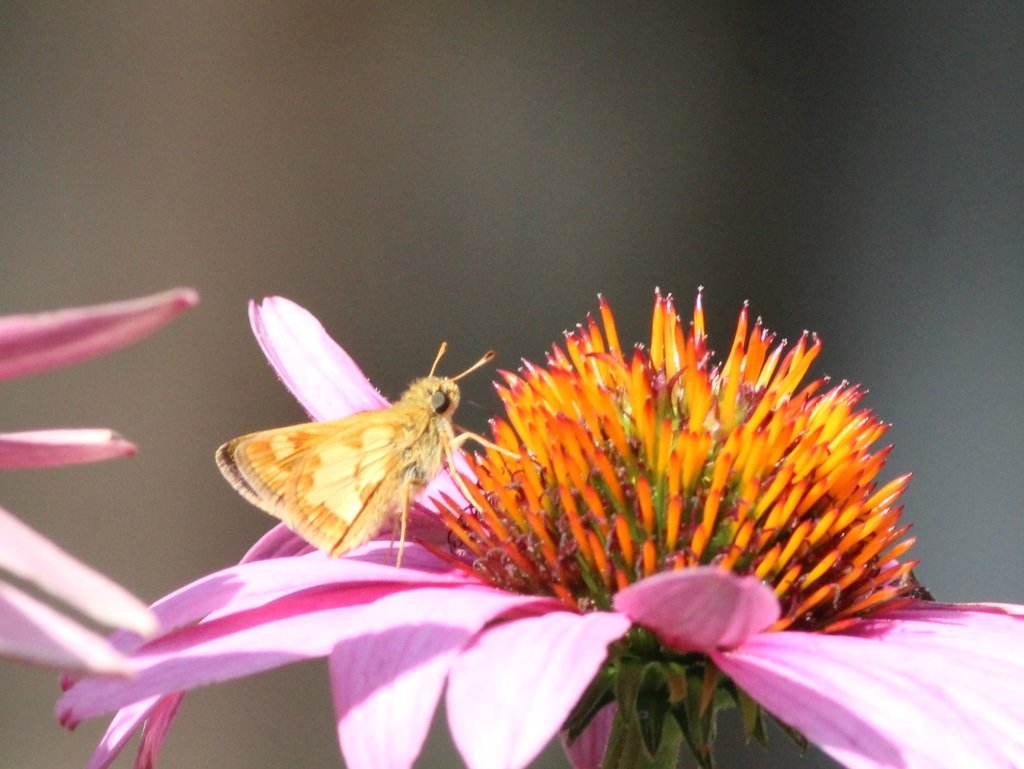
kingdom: Animalia
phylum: Arthropoda
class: Insecta
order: Lepidoptera
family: Hesperiidae
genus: Polites
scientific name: Polites coras
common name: Peck's Skipper
